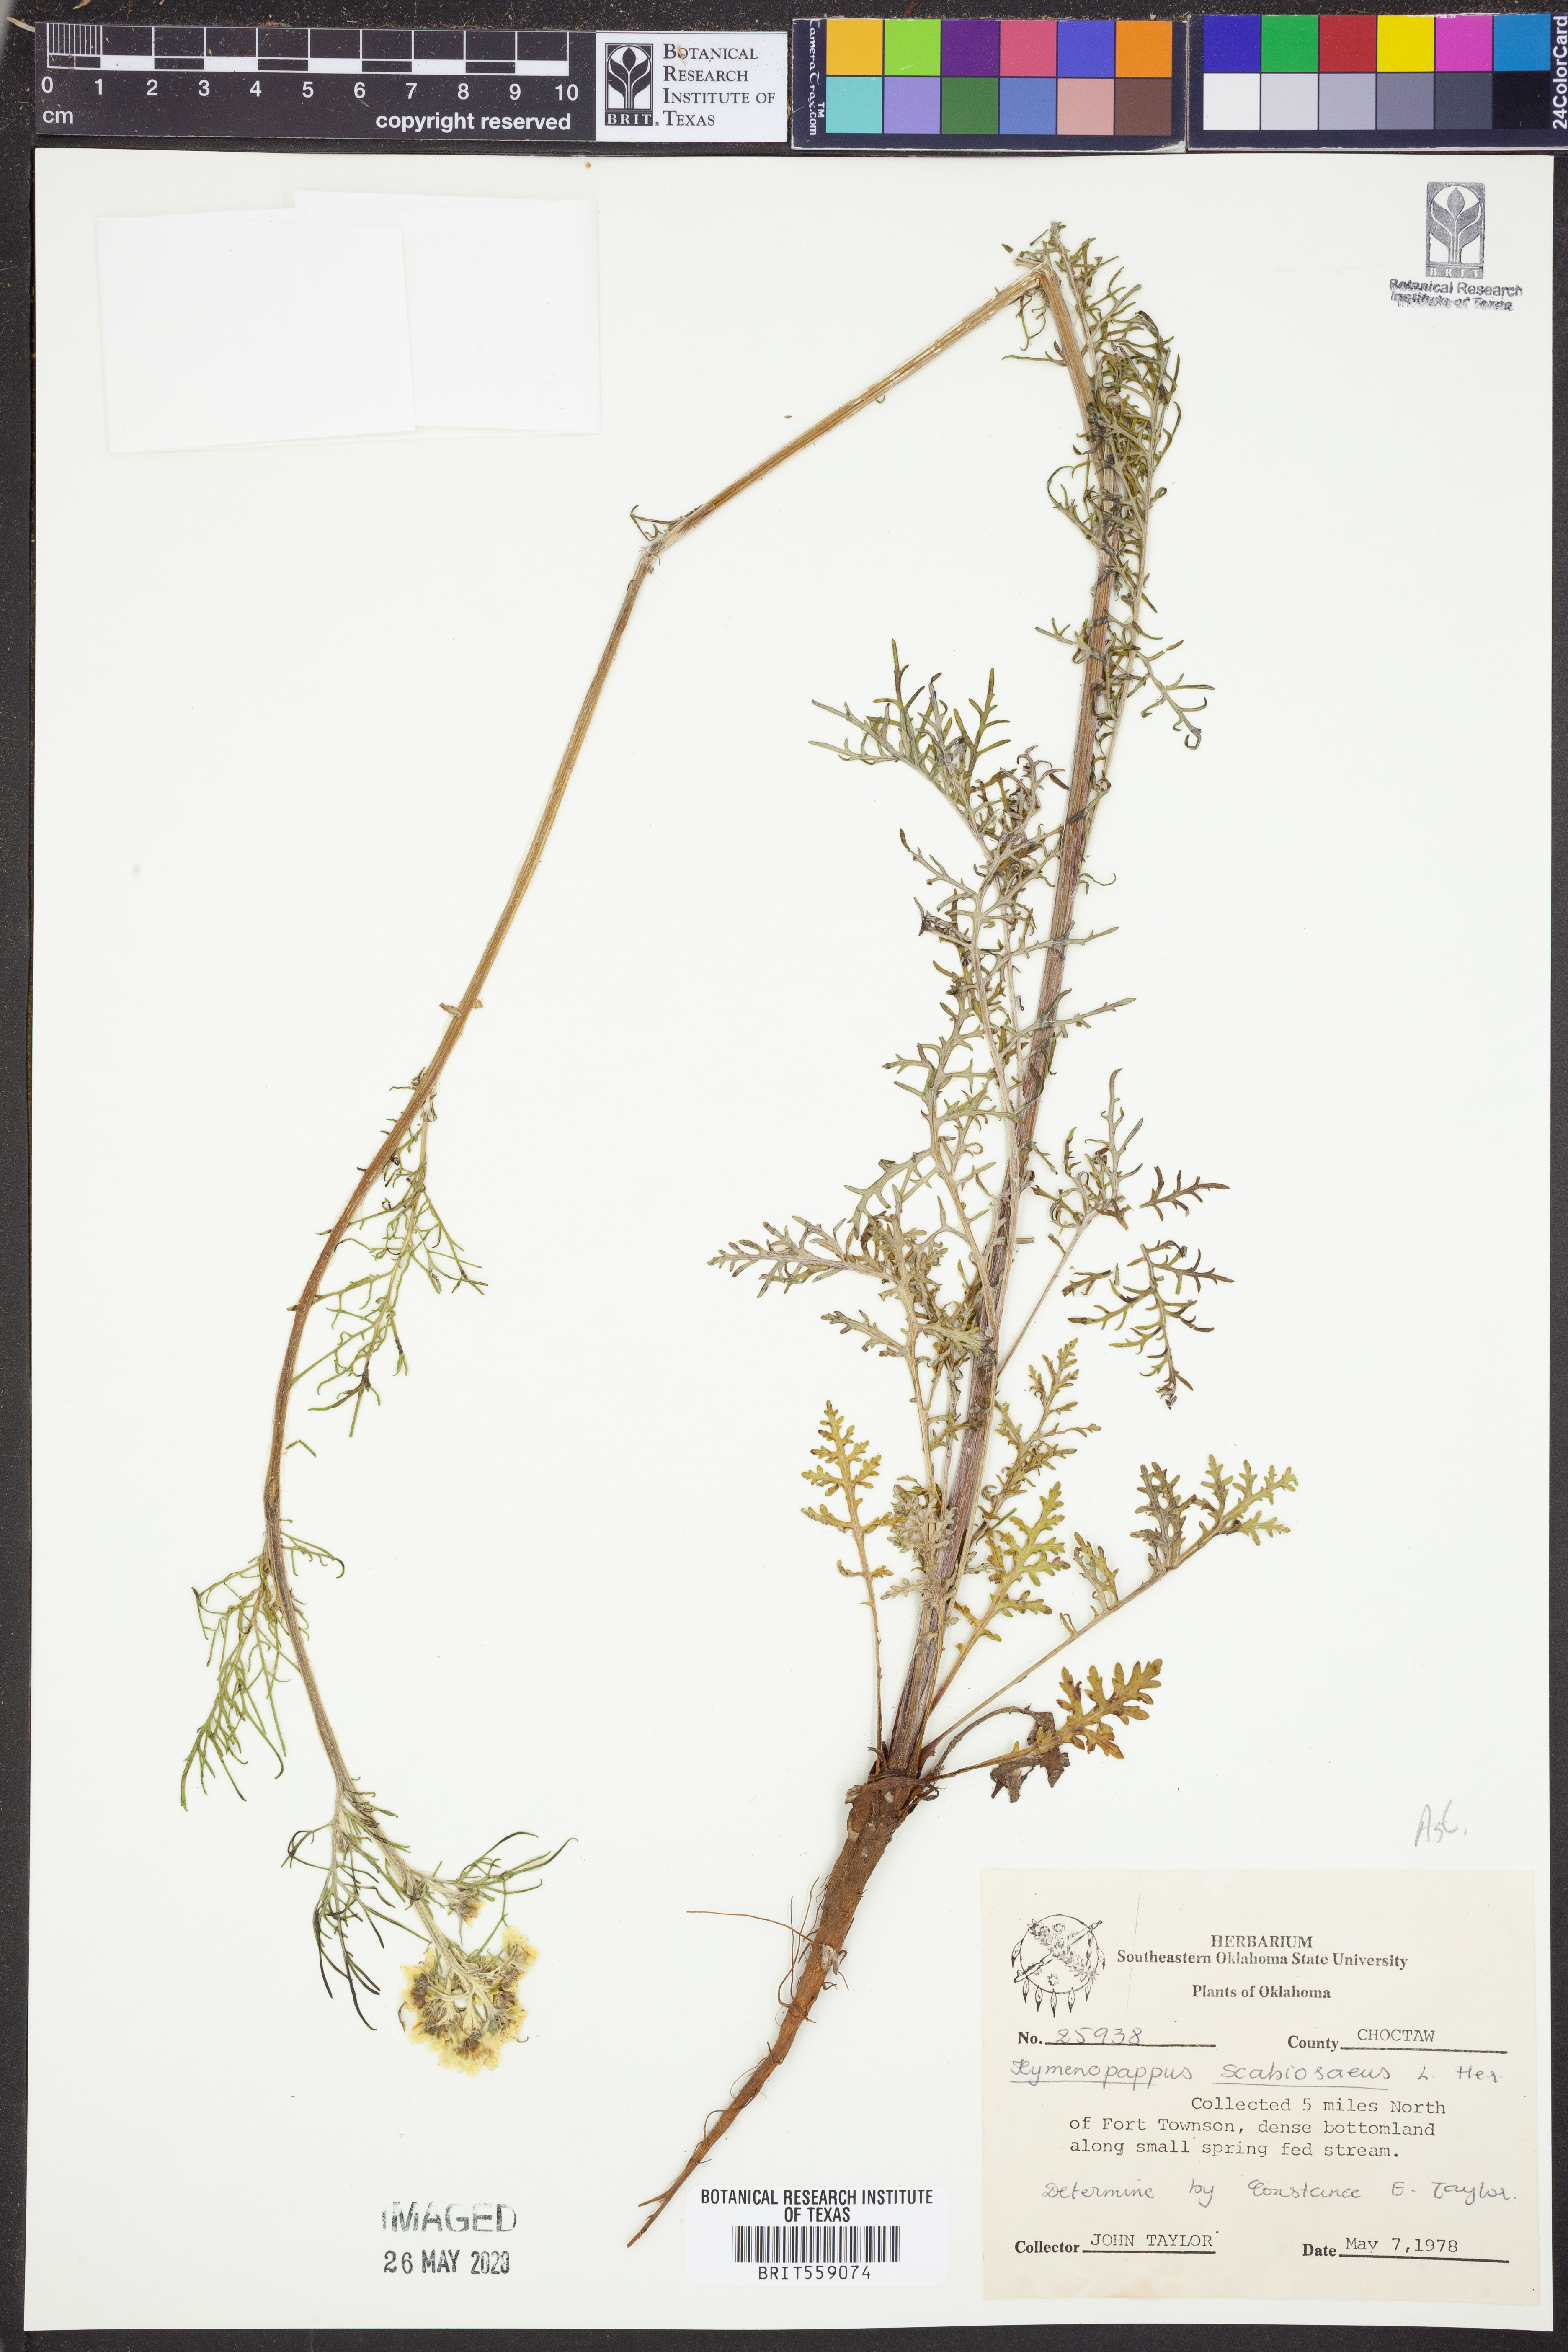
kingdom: Plantae
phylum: Tracheophyta
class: Magnoliopsida
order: Asterales
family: Asteraceae
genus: Hymenopappus
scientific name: Hymenopappus scabiosaeus
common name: Carolina woollywhite
